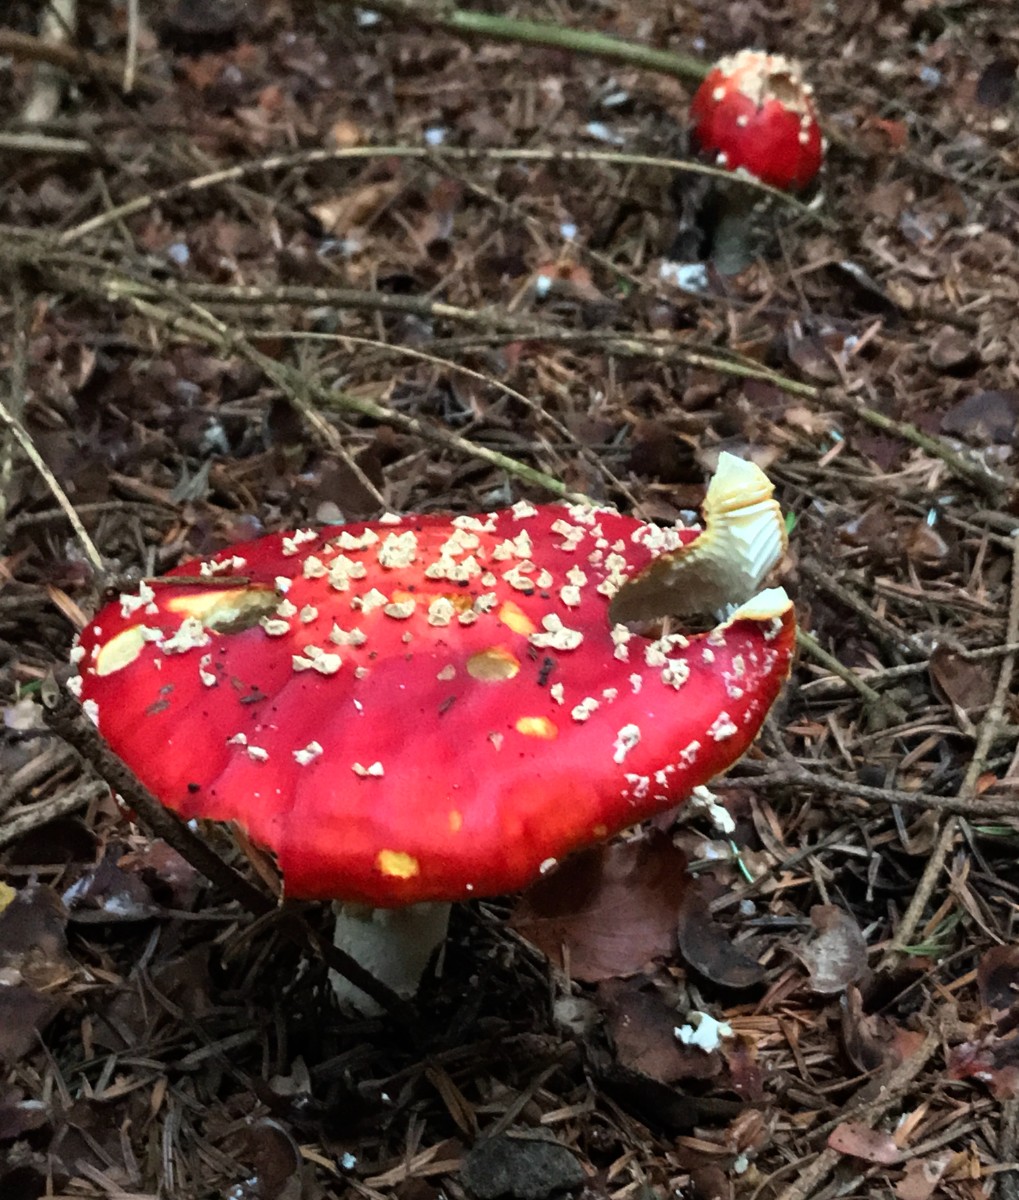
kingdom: Fungi
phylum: Basidiomycota
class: Agaricomycetes
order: Agaricales
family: Amanitaceae
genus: Amanita
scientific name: Amanita muscaria
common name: rød fluesvamp
